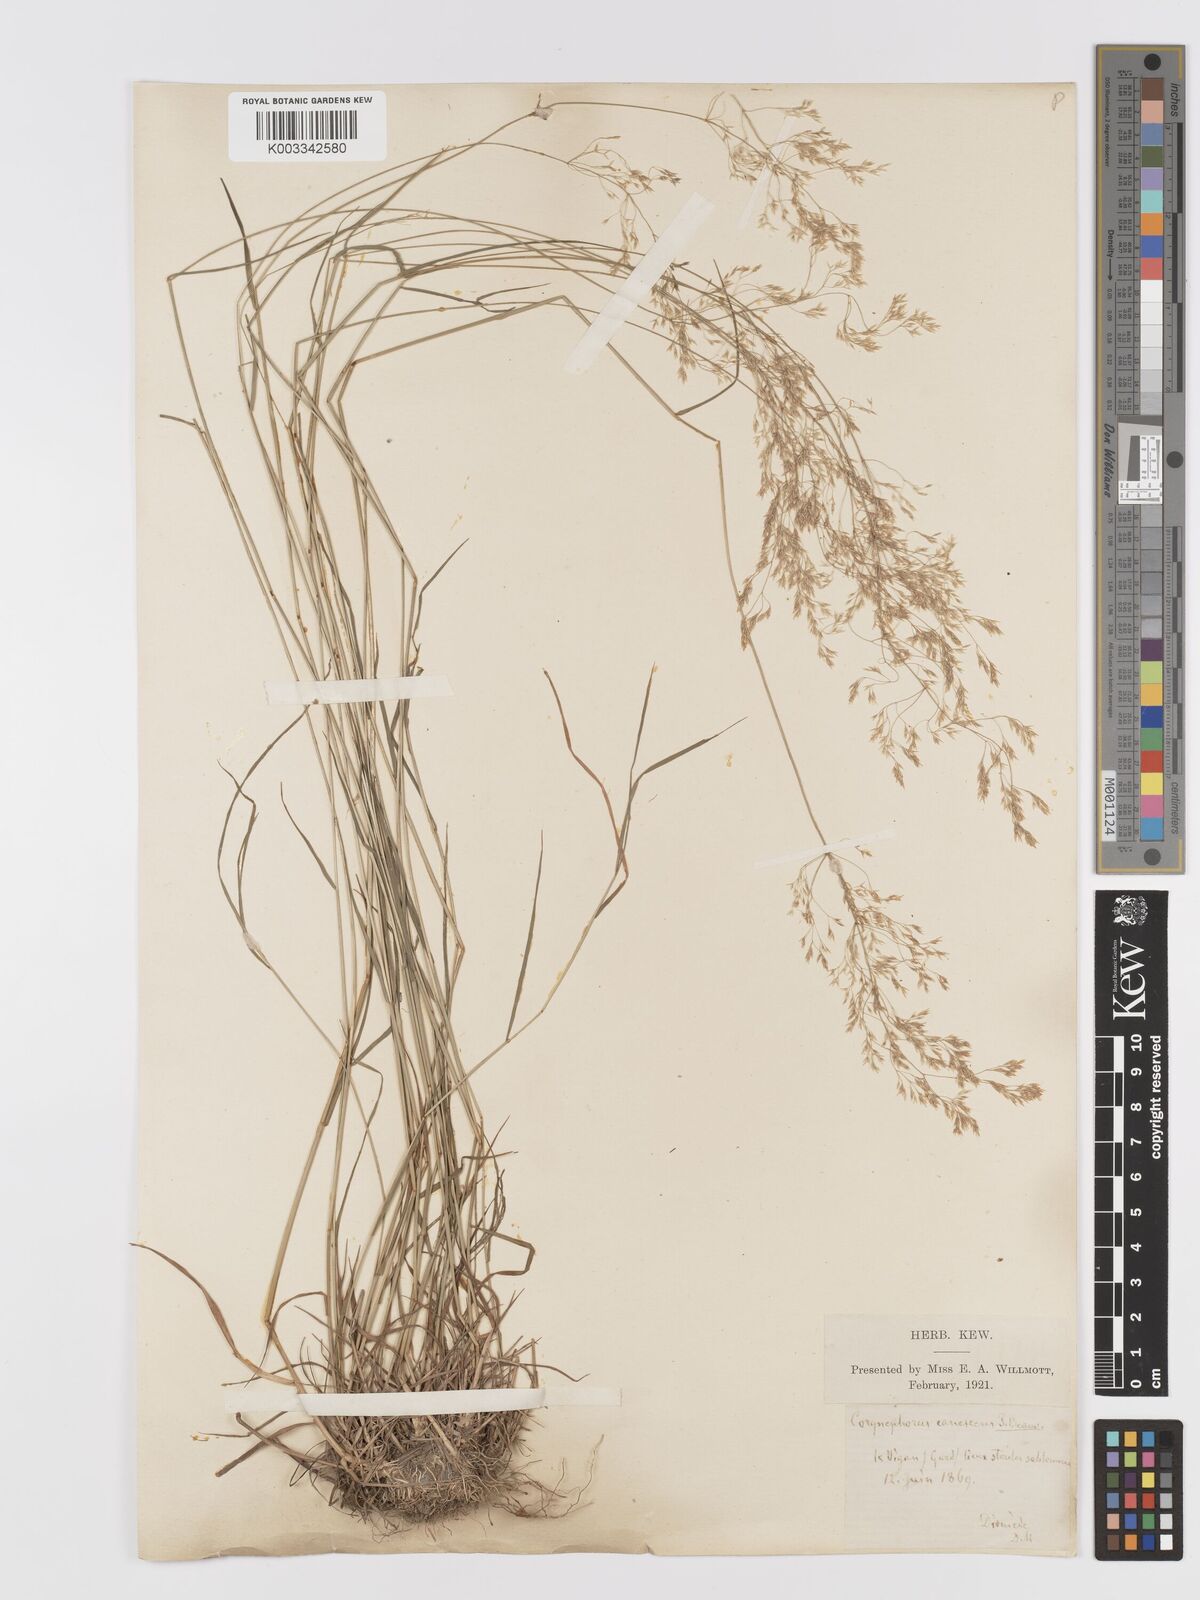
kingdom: Plantae
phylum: Tracheophyta
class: Liliopsida
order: Poales
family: Poaceae
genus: Agrostis
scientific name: Agrostis
